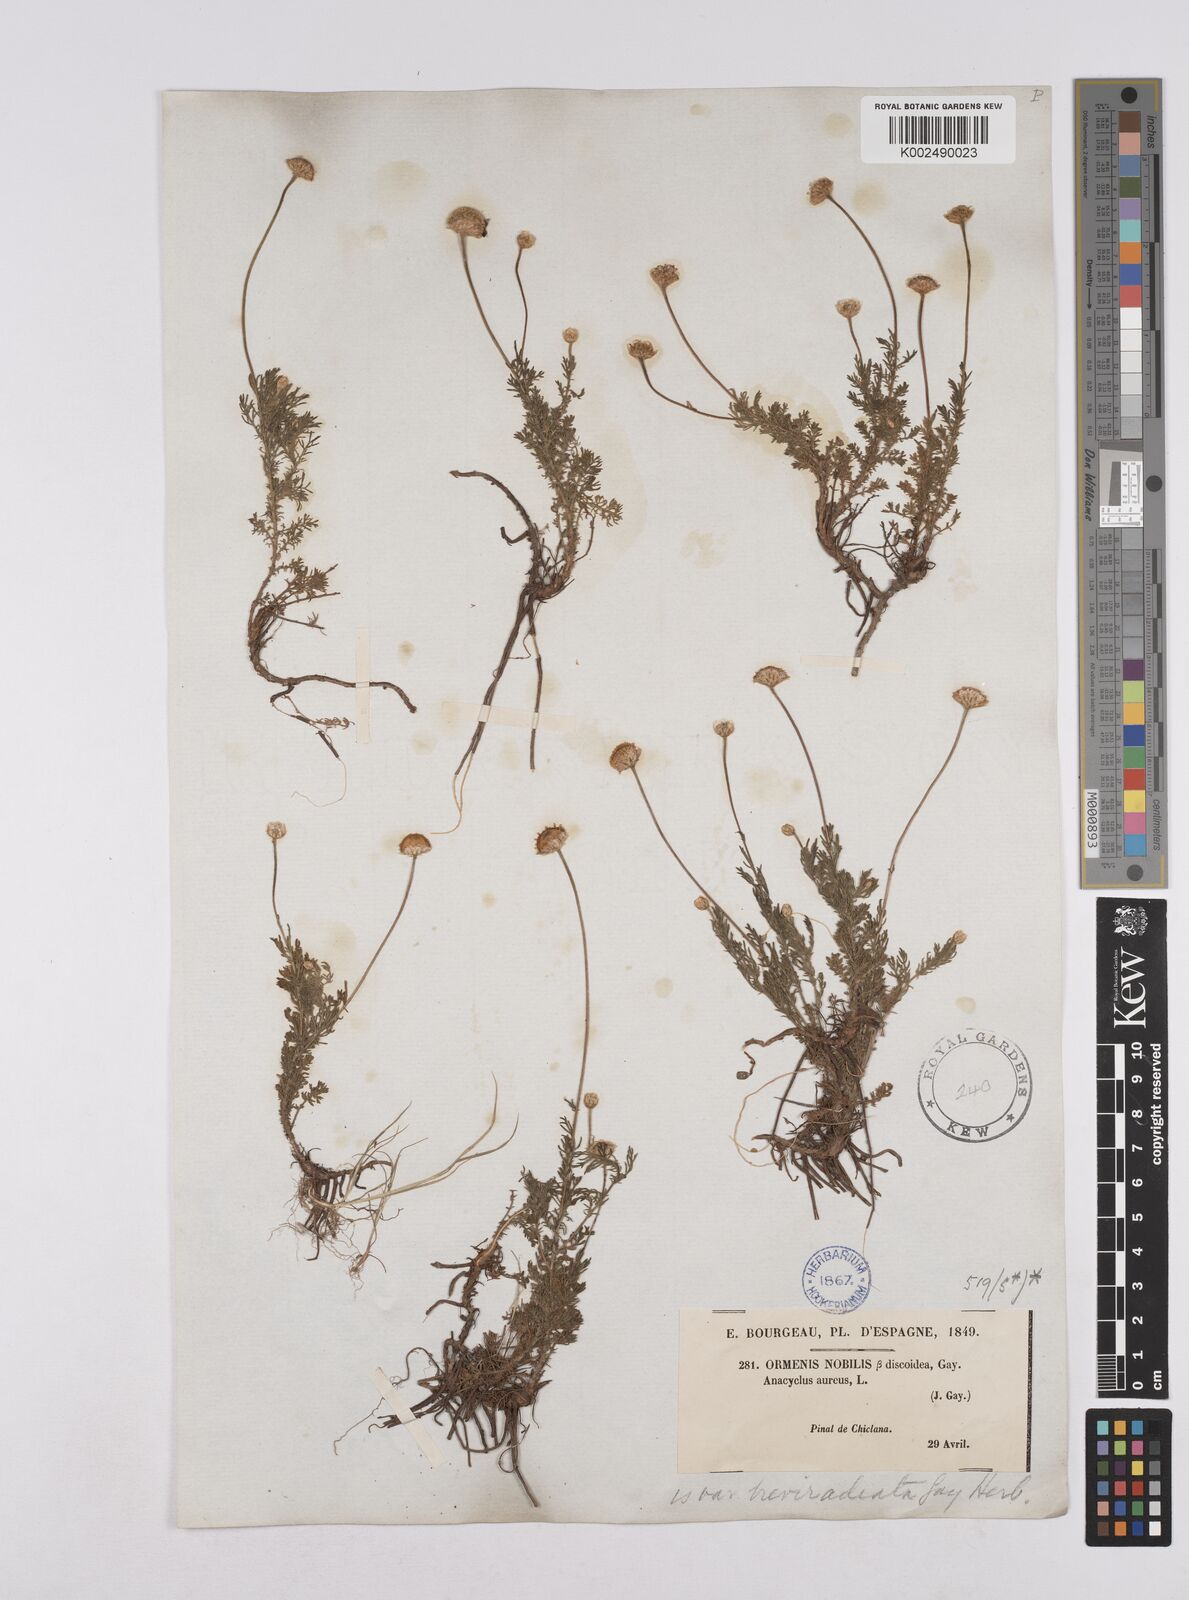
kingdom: Plantae
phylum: Tracheophyta
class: Magnoliopsida
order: Asterales
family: Asteraceae
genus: Matricaria
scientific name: Matricaria aurea
